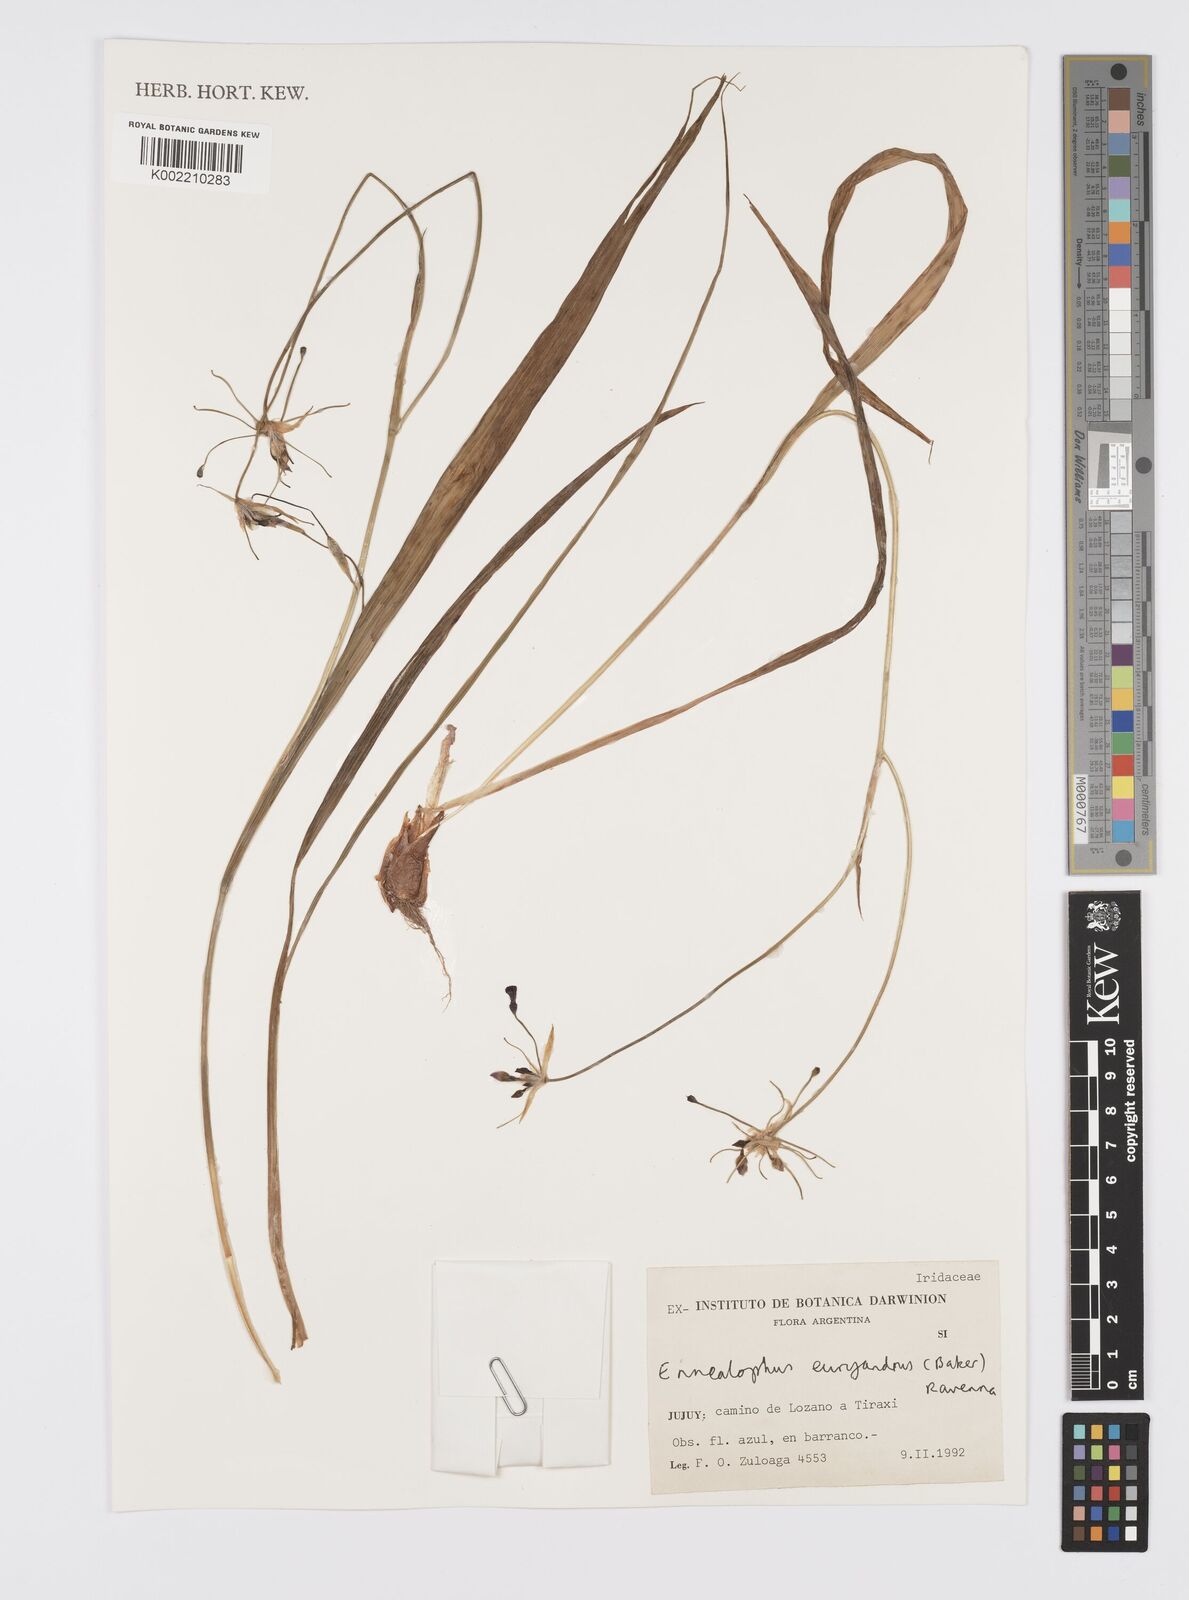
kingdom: Plantae
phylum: Tracheophyta
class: Liliopsida
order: Asparagales
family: Iridaceae
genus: Ennealophus
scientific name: Ennealophus euryandrus
